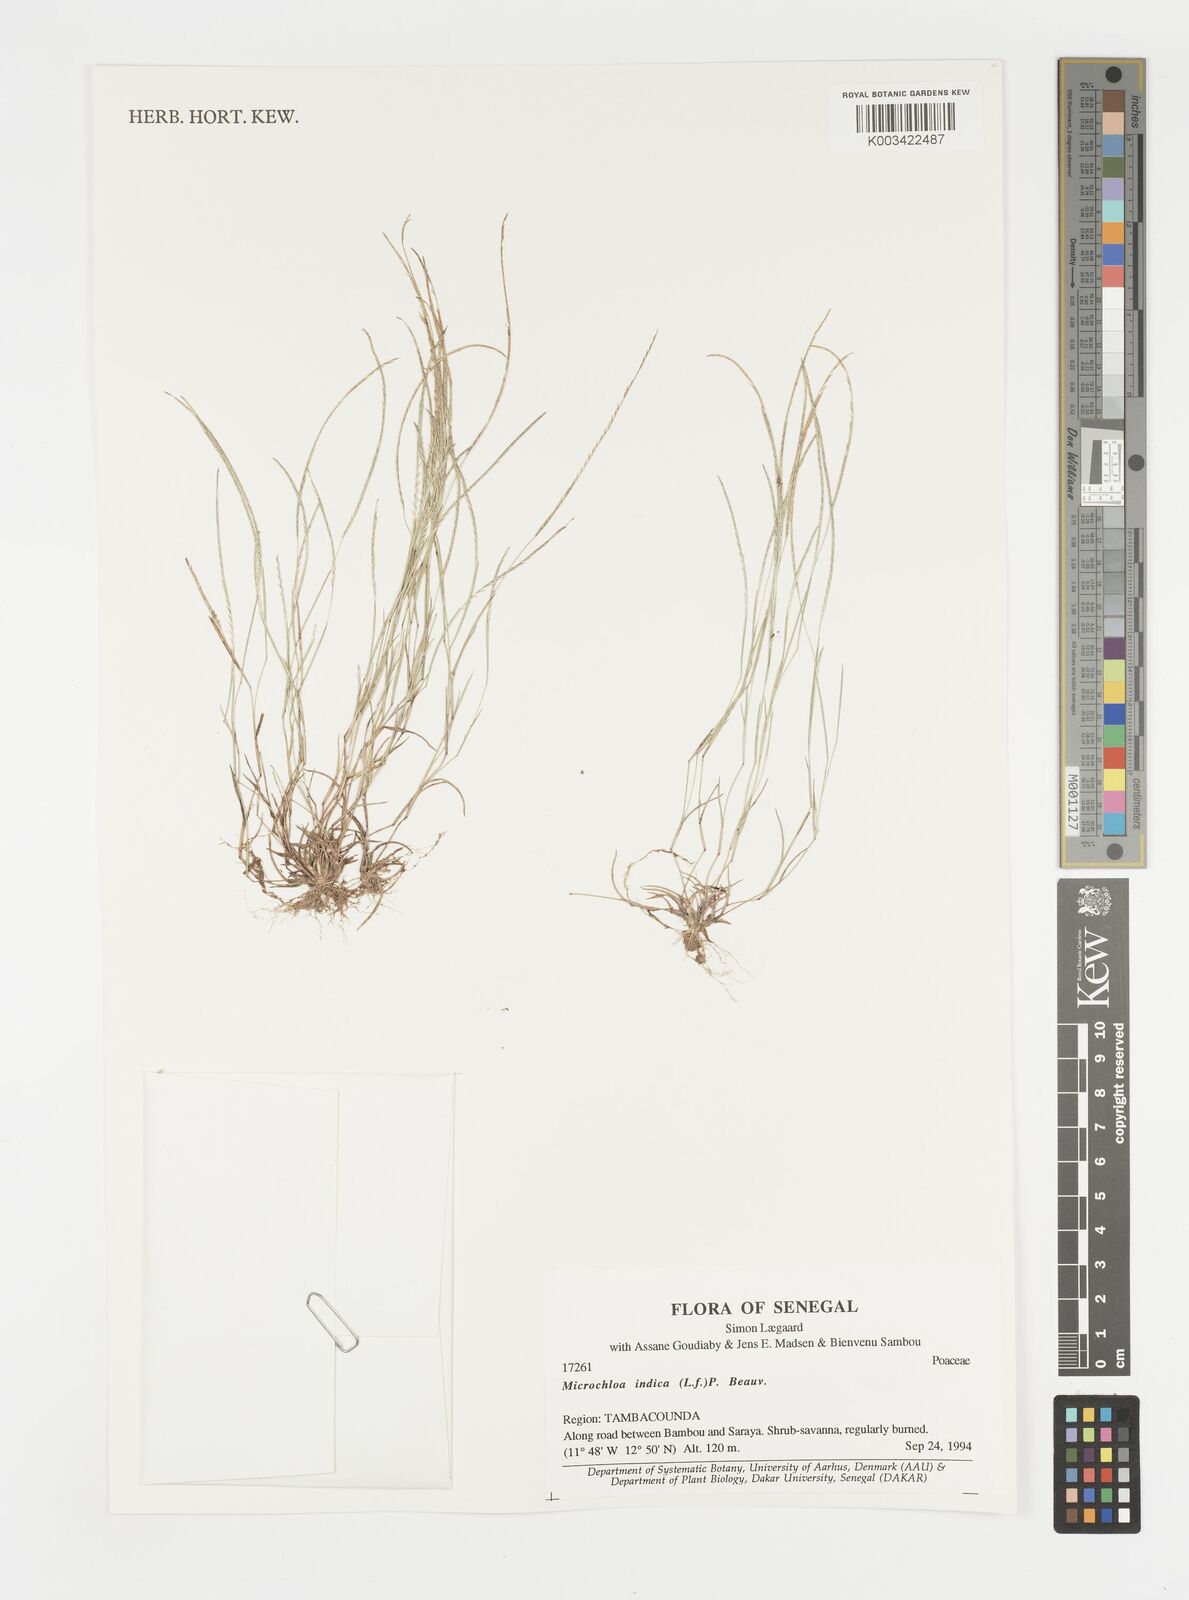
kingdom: Plantae
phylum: Tracheophyta
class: Liliopsida
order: Poales
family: Poaceae
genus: Microchloa
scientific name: Microchloa indica
